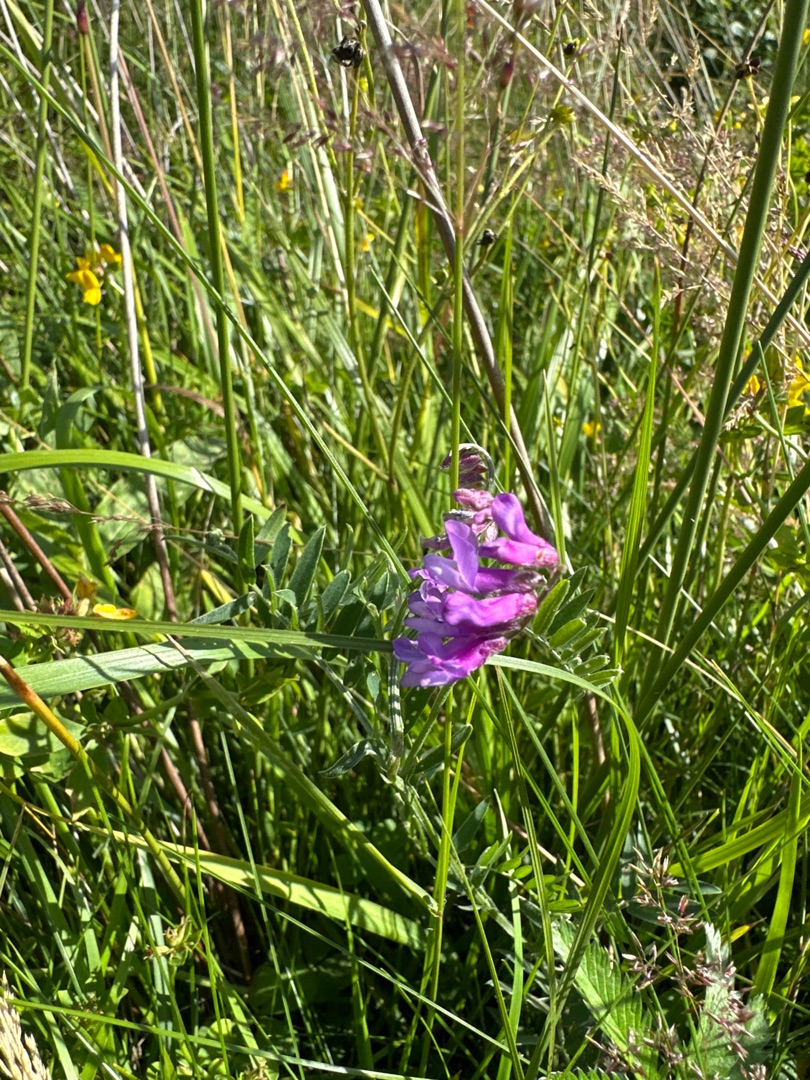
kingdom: Plantae
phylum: Tracheophyta
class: Magnoliopsida
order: Fabales
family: Fabaceae
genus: Vicia
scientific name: Vicia cracca
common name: Muse-vikke
